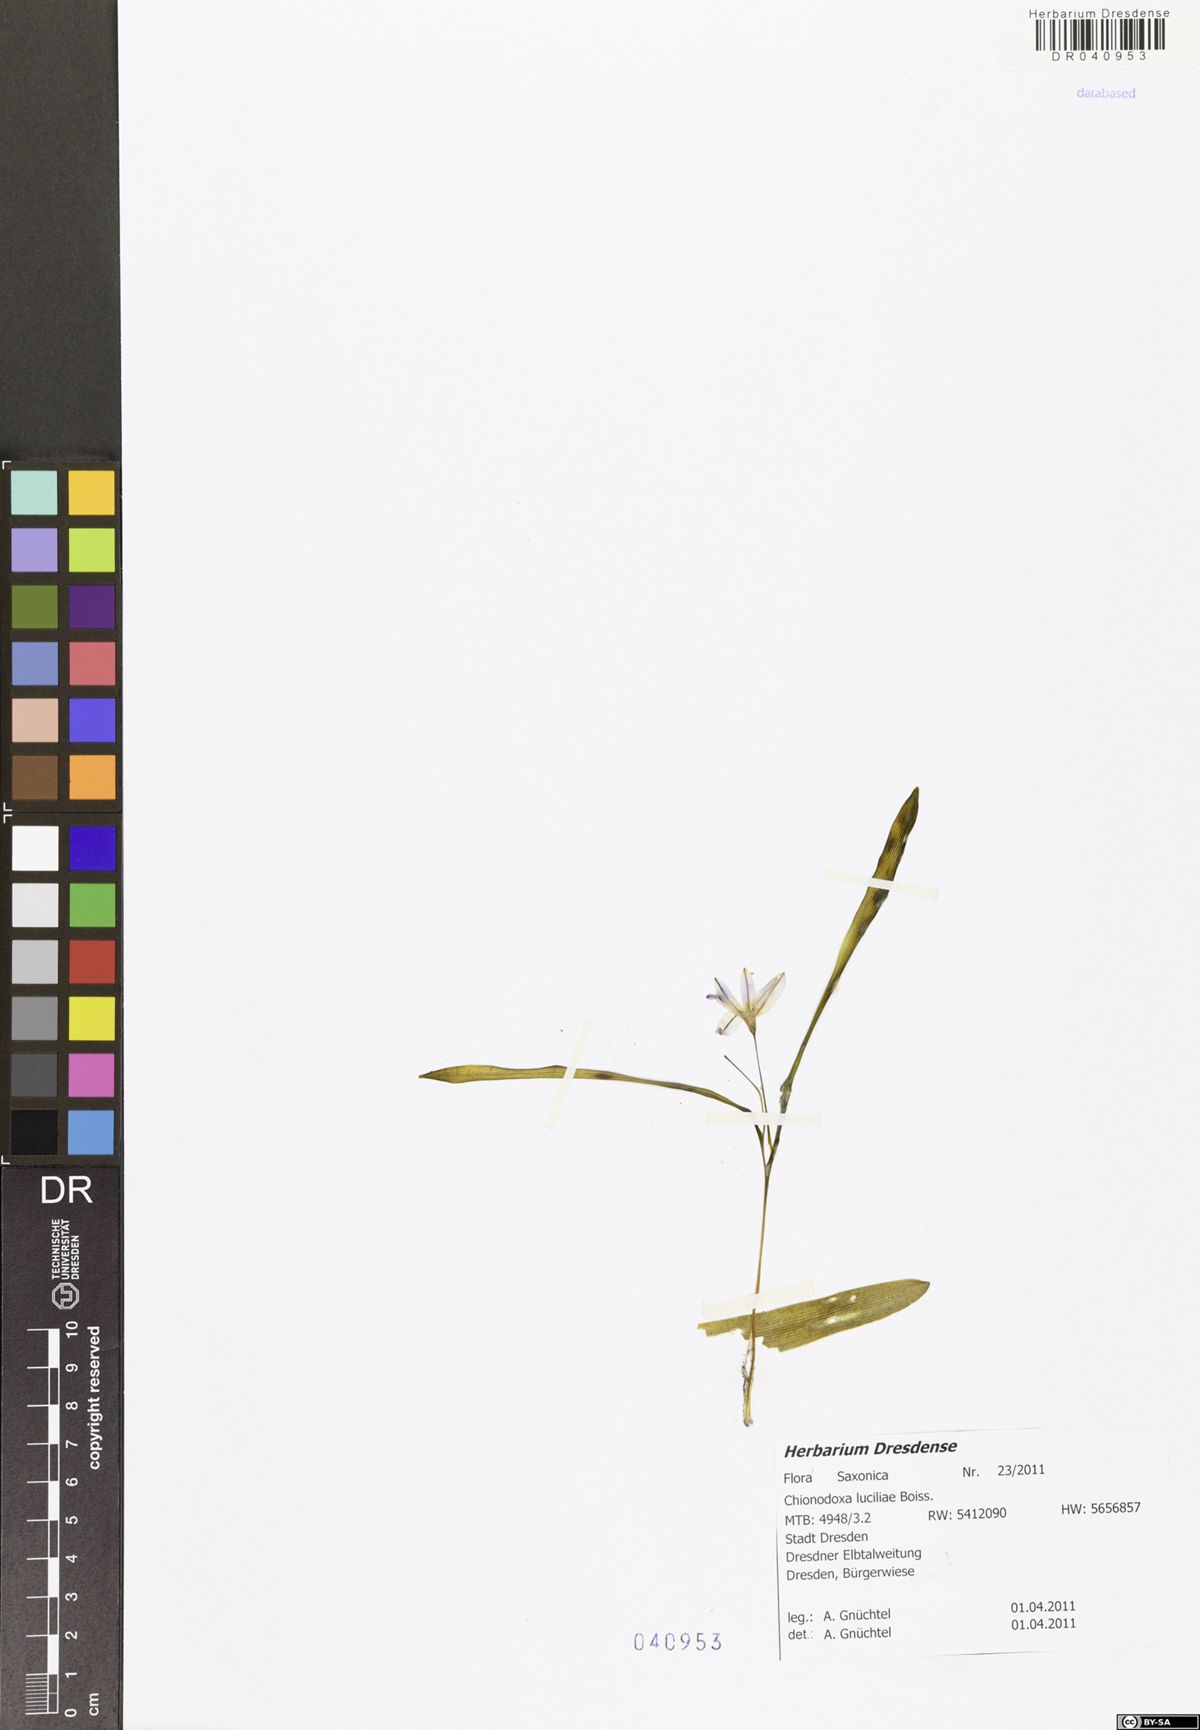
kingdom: Plantae
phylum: Tracheophyta
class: Liliopsida
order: Asparagales
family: Asparagaceae
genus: Scilla
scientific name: Scilla luciliae
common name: Boissier's glory-of-the-snow
